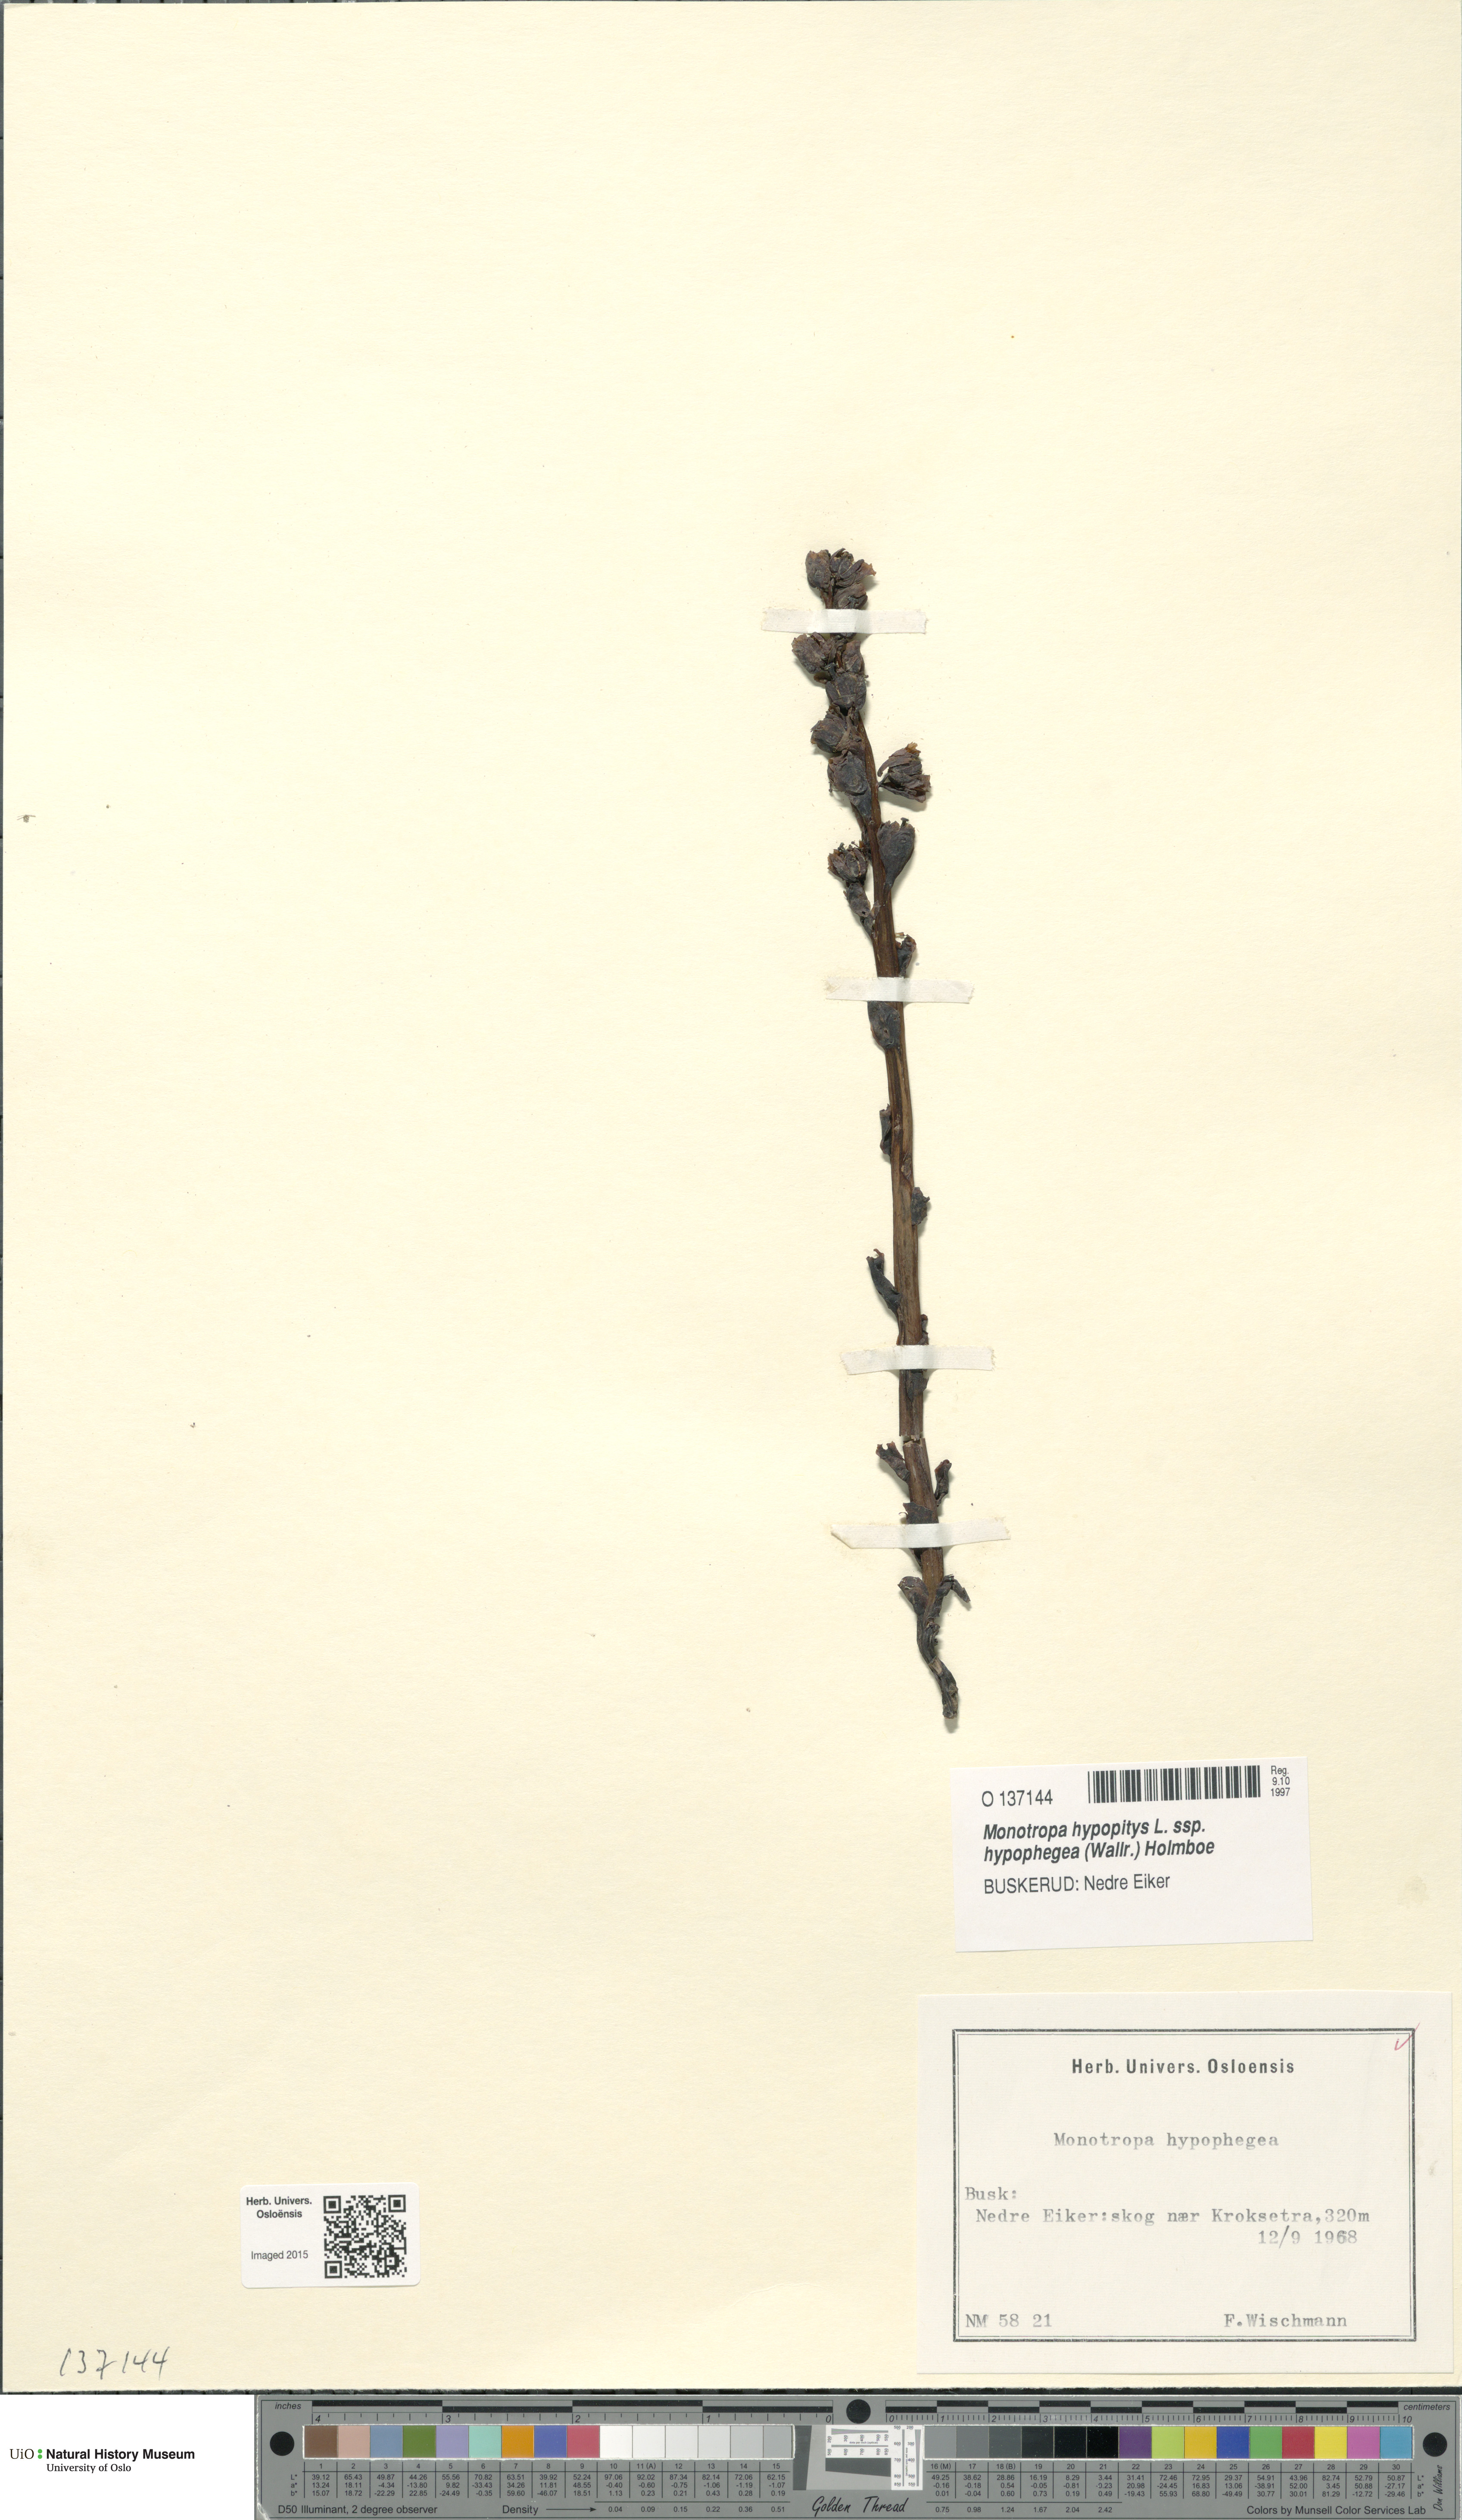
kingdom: Plantae
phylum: Tracheophyta
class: Magnoliopsida
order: Ericales
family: Ericaceae
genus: Hypopitys
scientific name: Hypopitys hypophegea
